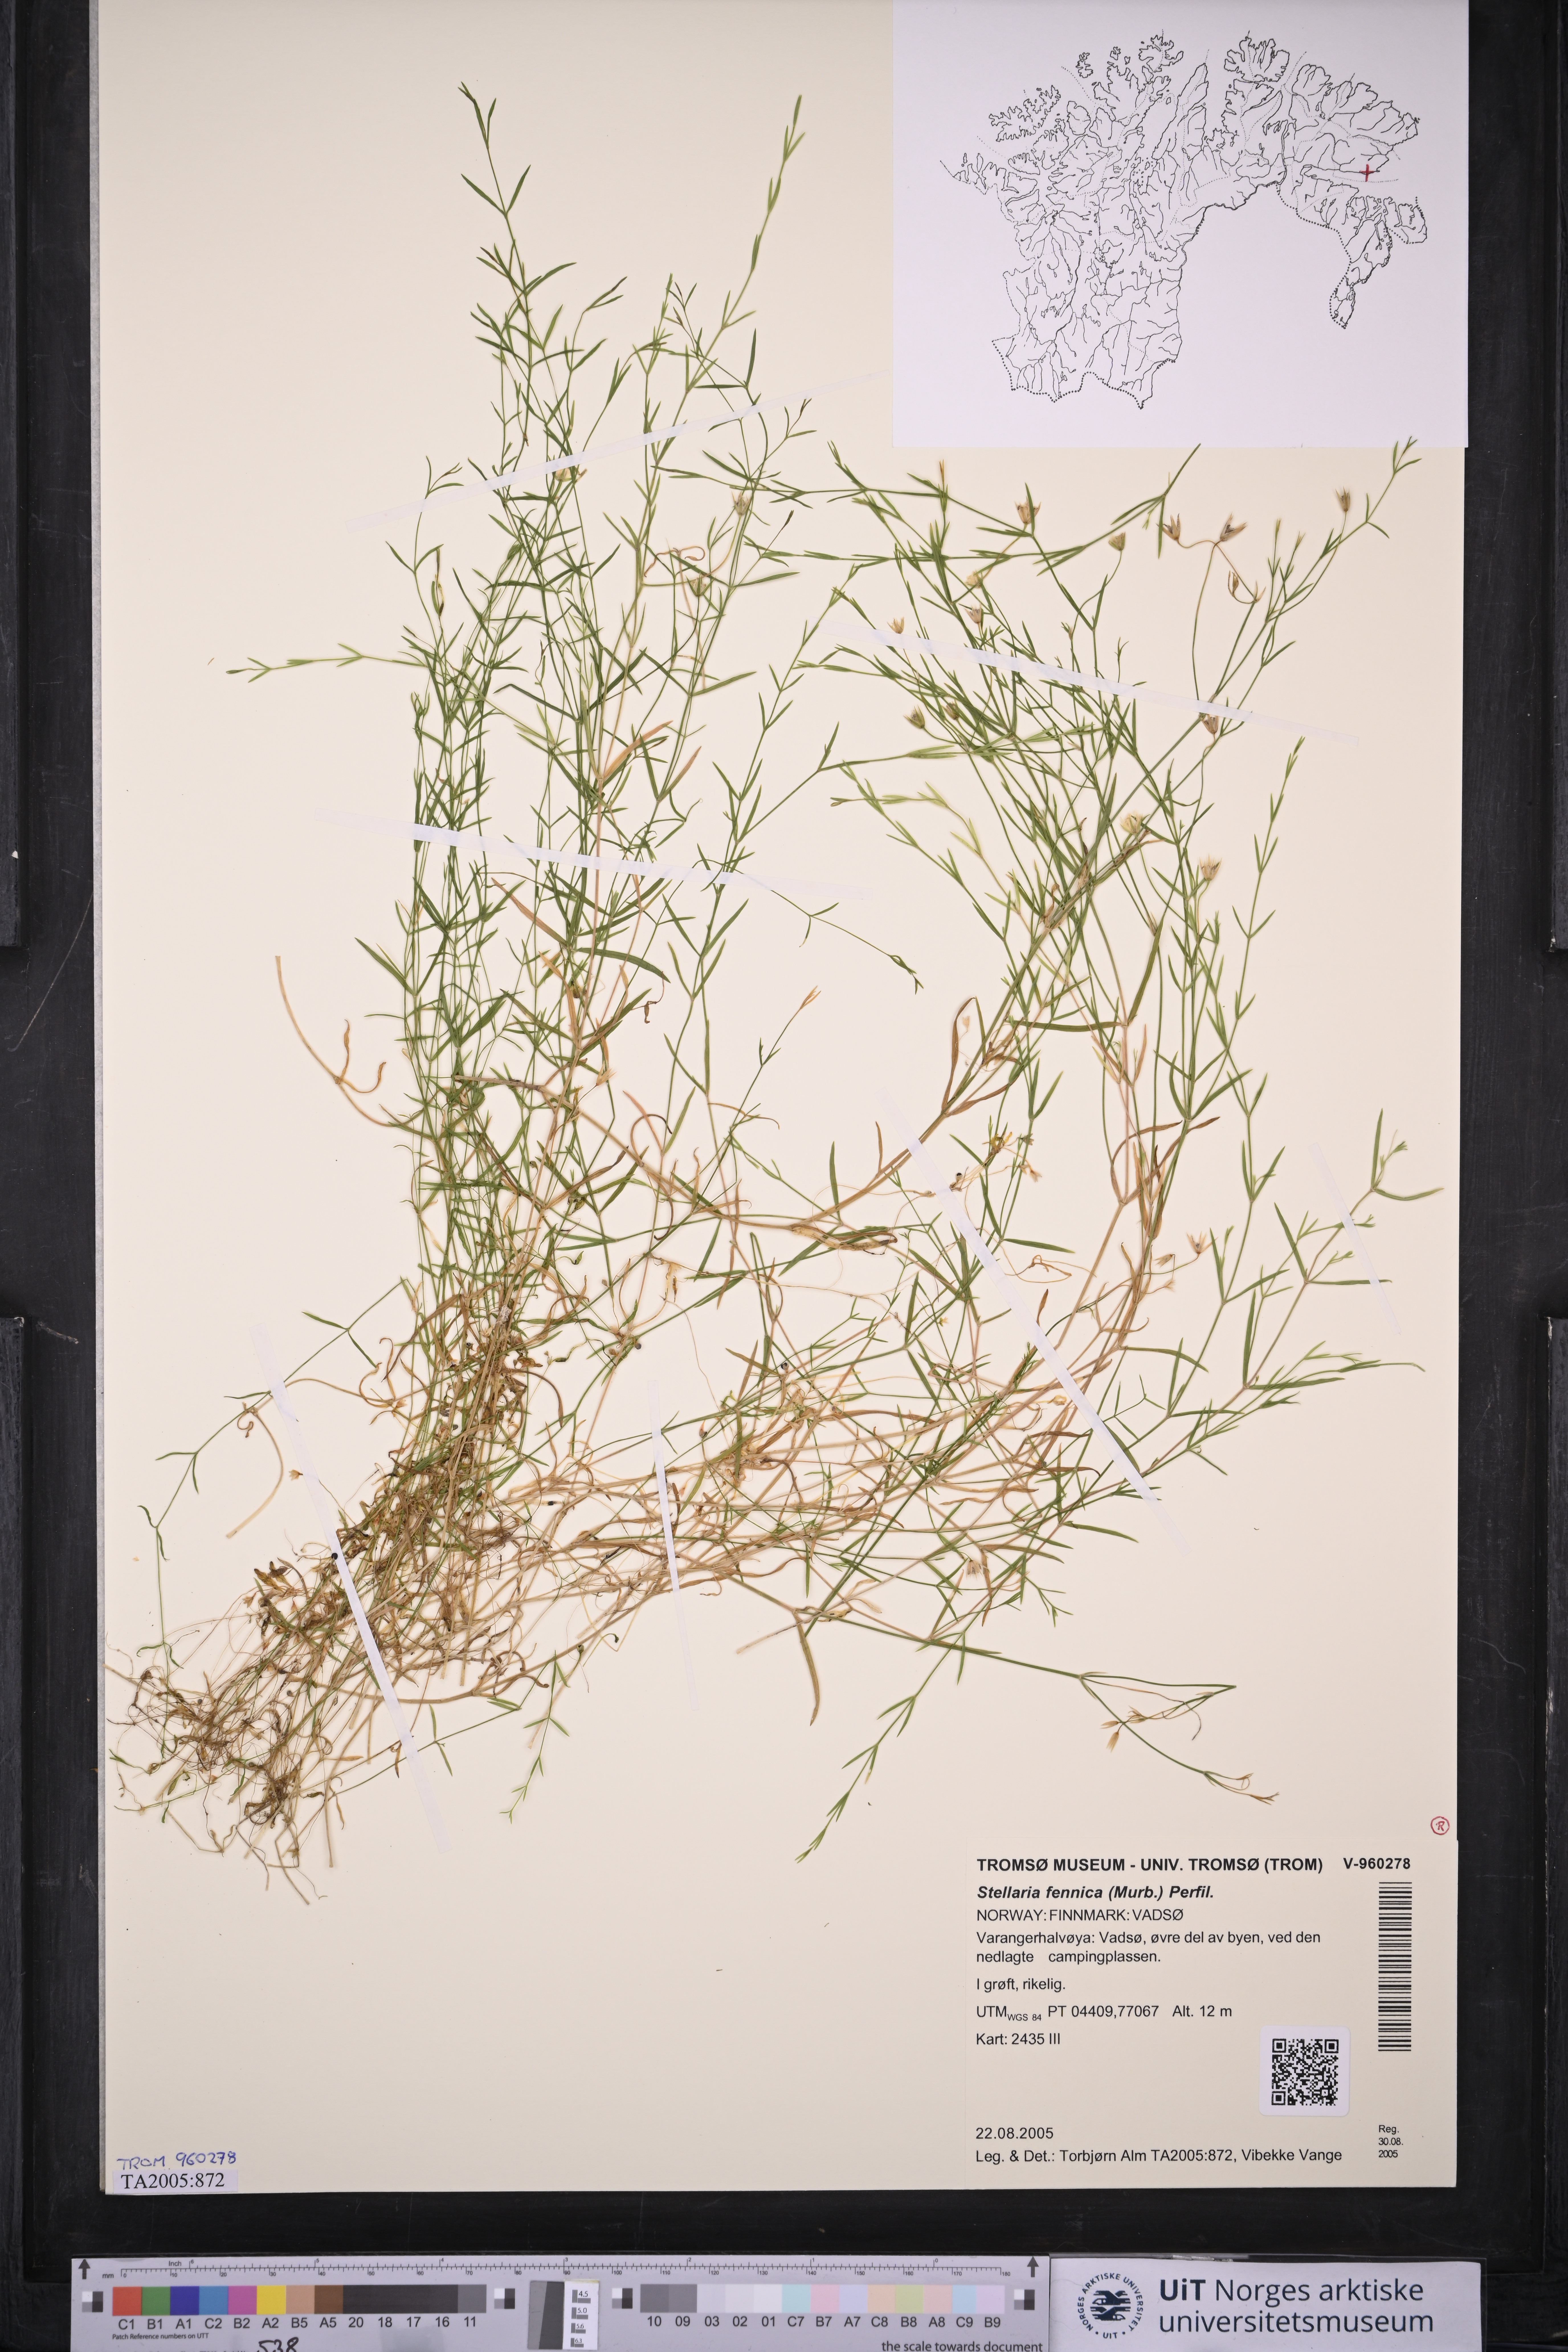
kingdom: Plantae
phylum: Tracheophyta
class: Magnoliopsida
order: Caryophyllales
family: Caryophyllaceae
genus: Stellaria
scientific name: Stellaria fennica
